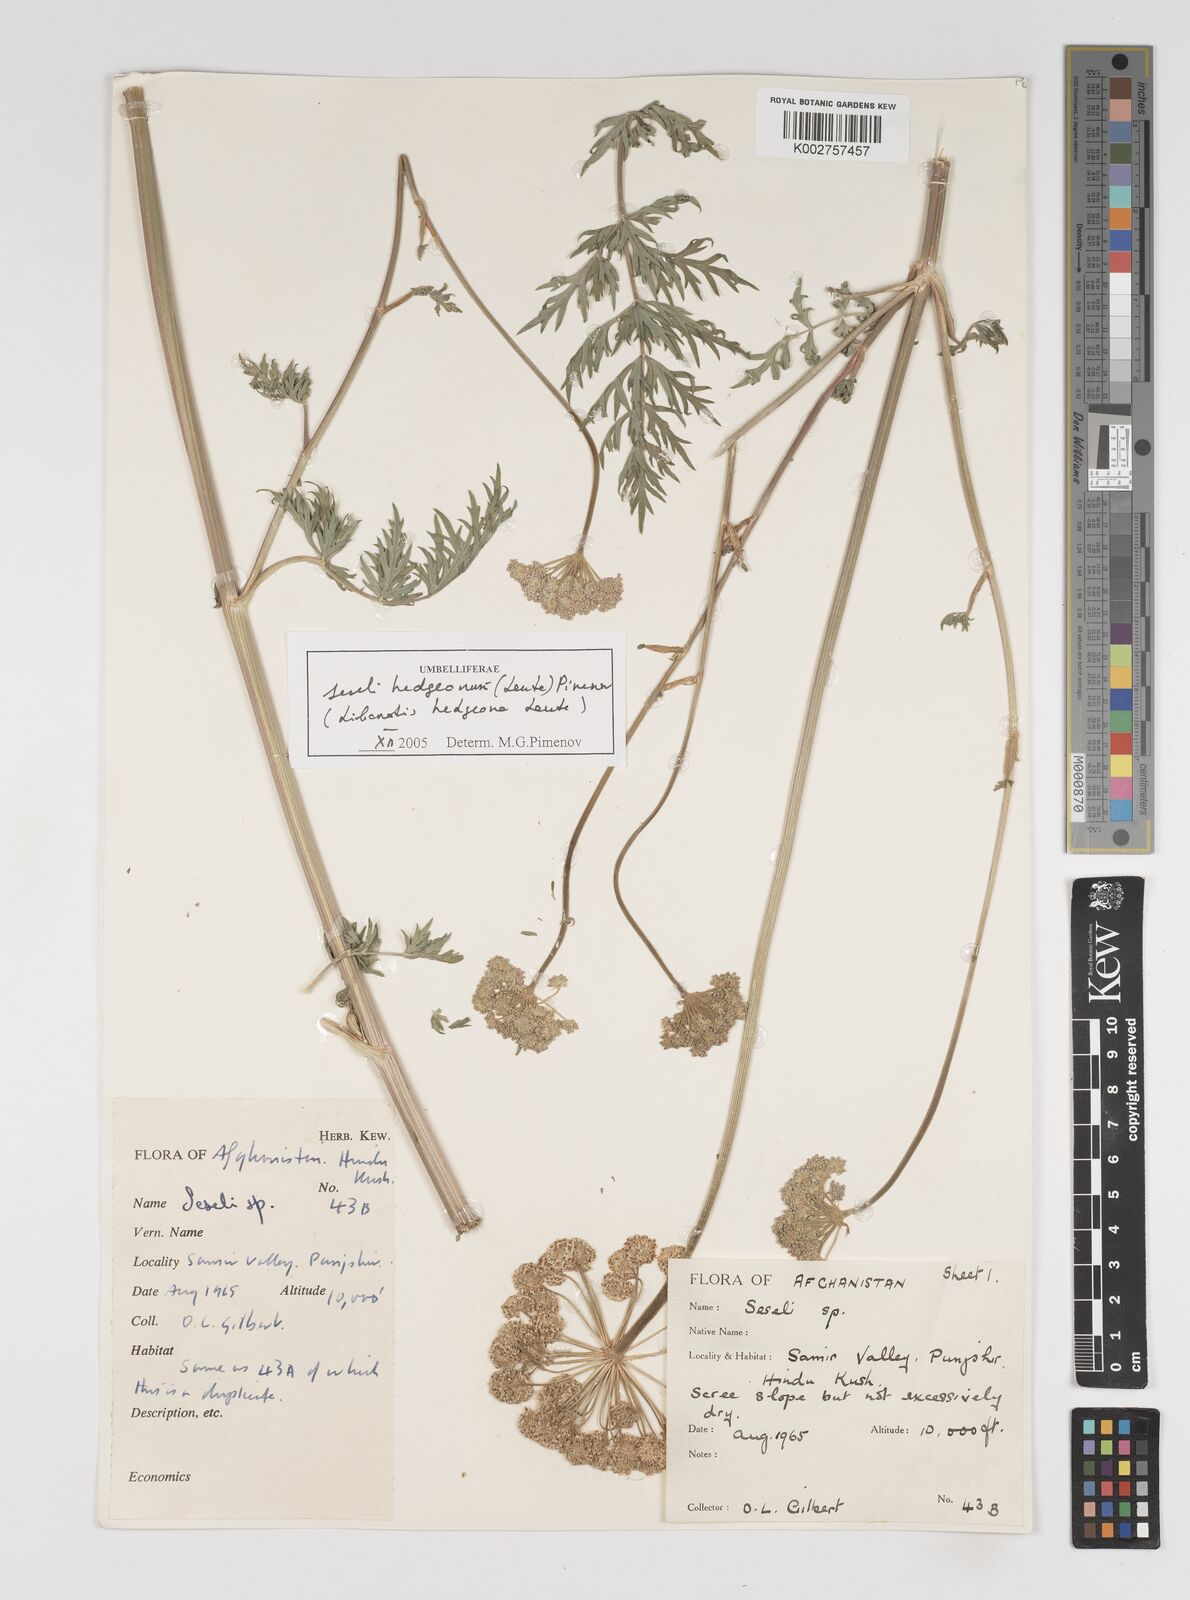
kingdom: Plantae
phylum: Tracheophyta
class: Magnoliopsida
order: Apiales
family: Apiaceae
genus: Seseli
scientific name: Seseli
